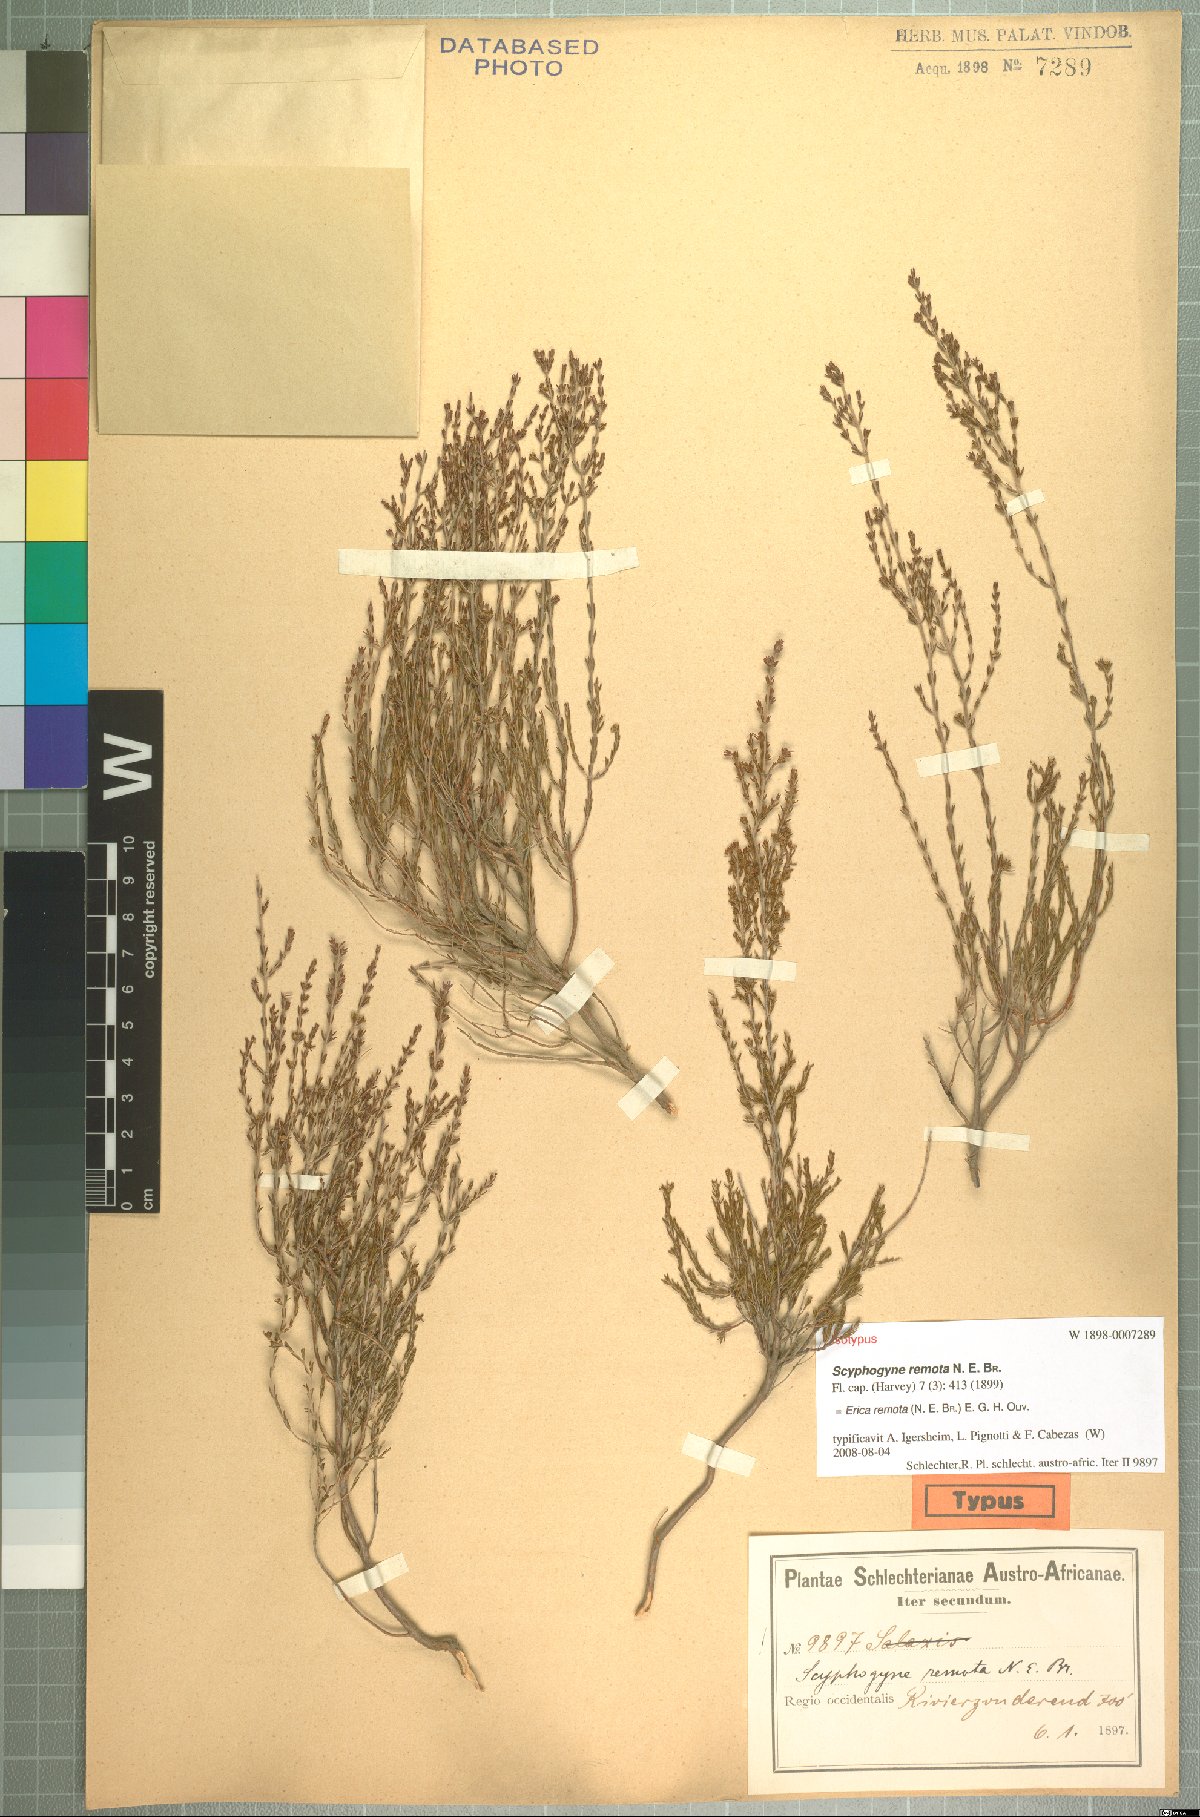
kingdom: Plantae
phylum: Tracheophyta
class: Magnoliopsida
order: Ericales
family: Ericaceae
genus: Erica
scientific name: Erica remota
